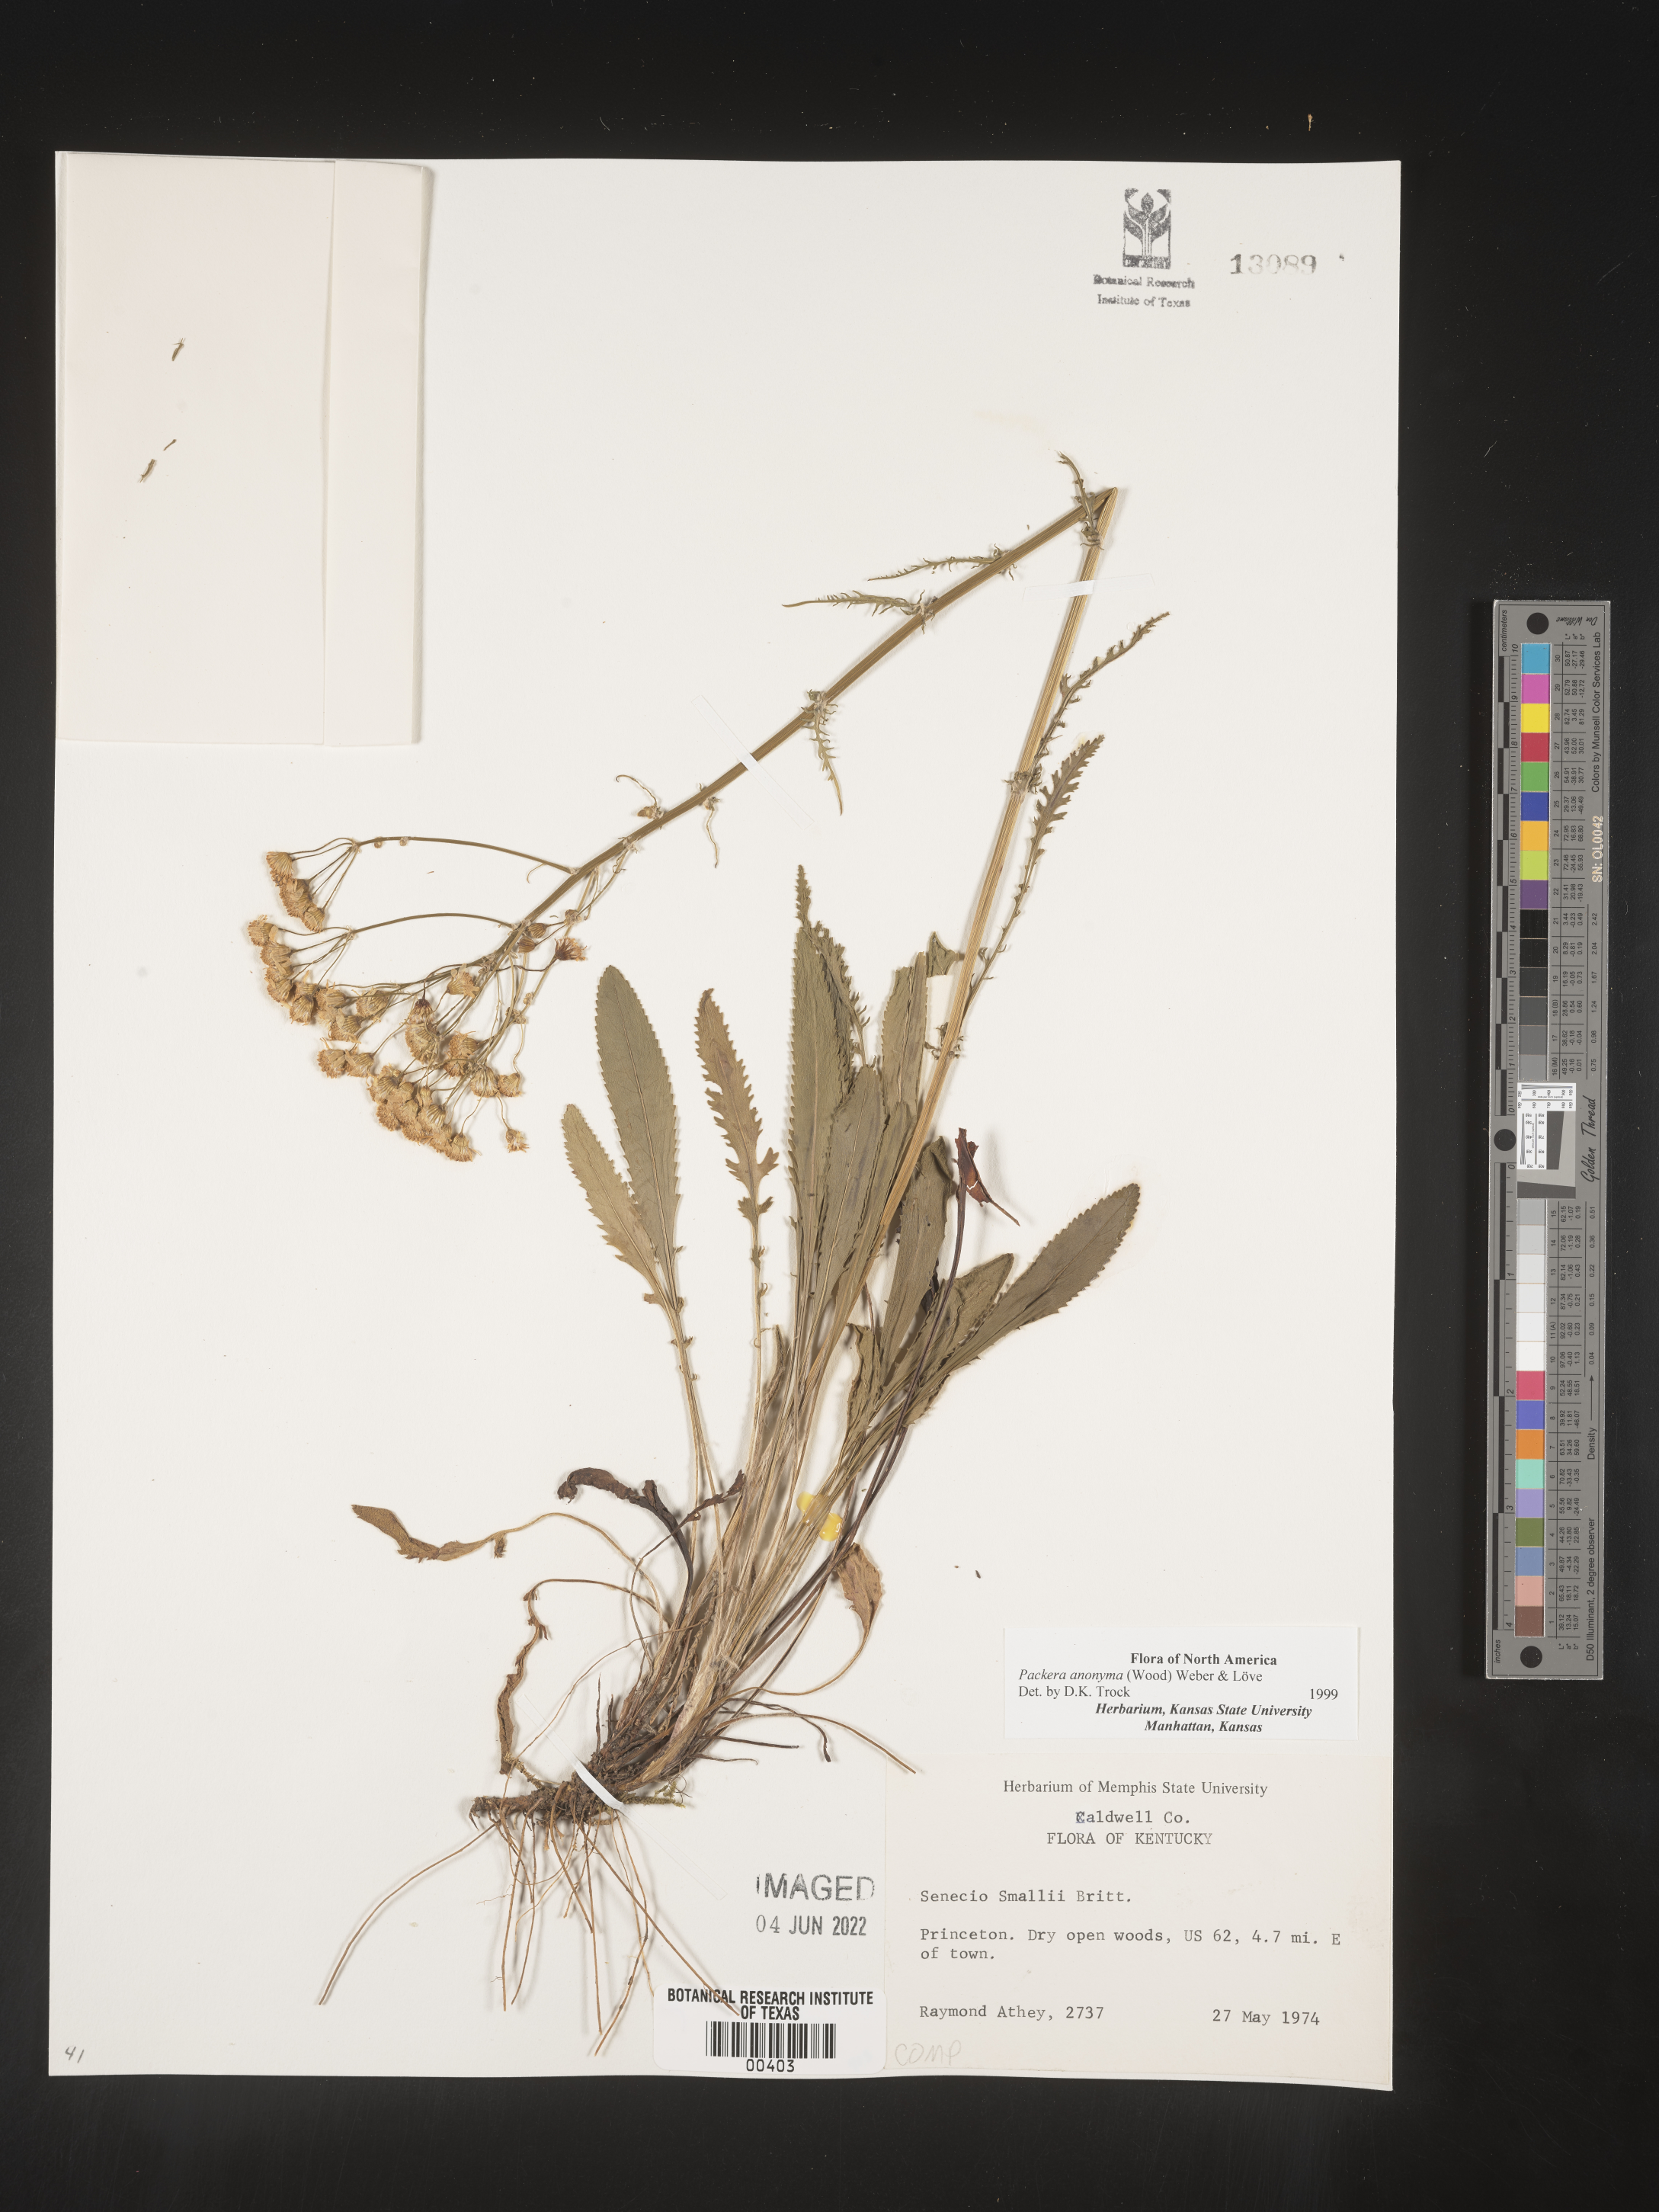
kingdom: Plantae
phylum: Tracheophyta
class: Magnoliopsida
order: Asterales
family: Asteraceae
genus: Packera
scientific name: Packera anonyma
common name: Small ragwort
